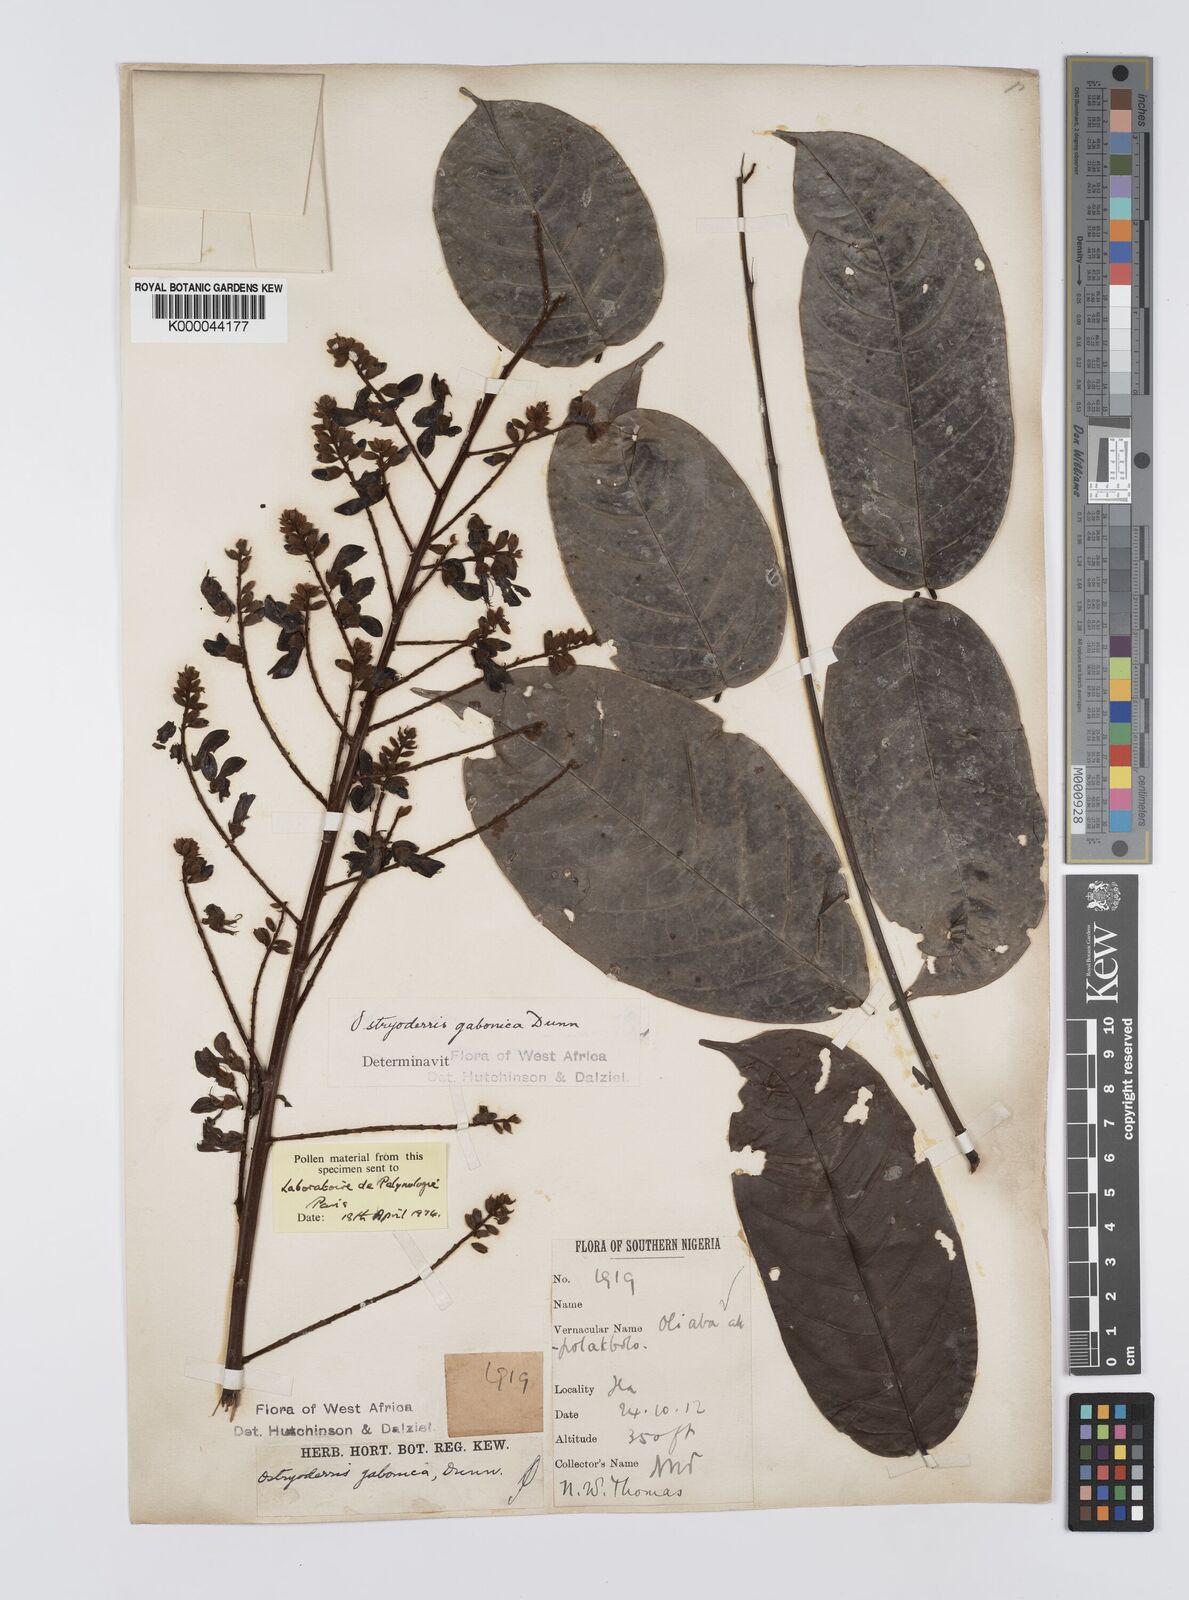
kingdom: Plantae
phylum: Tracheophyta
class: Magnoliopsida
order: Fabales
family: Fabaceae
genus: Aganope
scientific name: Aganope gabonica
